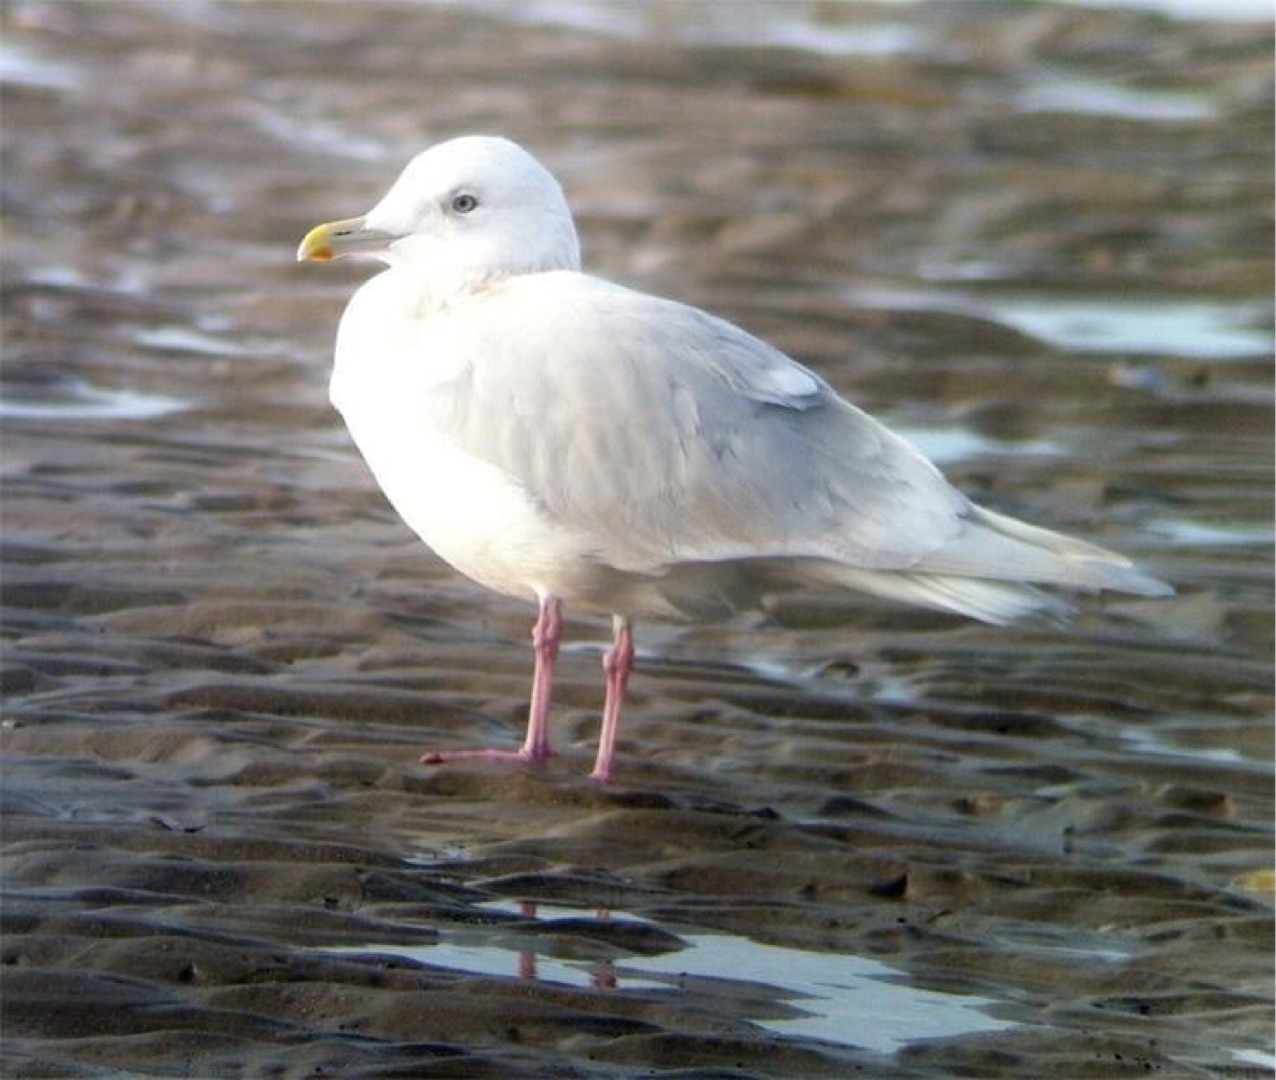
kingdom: Animalia
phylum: Chordata
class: Aves
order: Charadriiformes
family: Laridae
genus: Larus
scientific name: Larus glaucoides
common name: Hvidvinget måge
